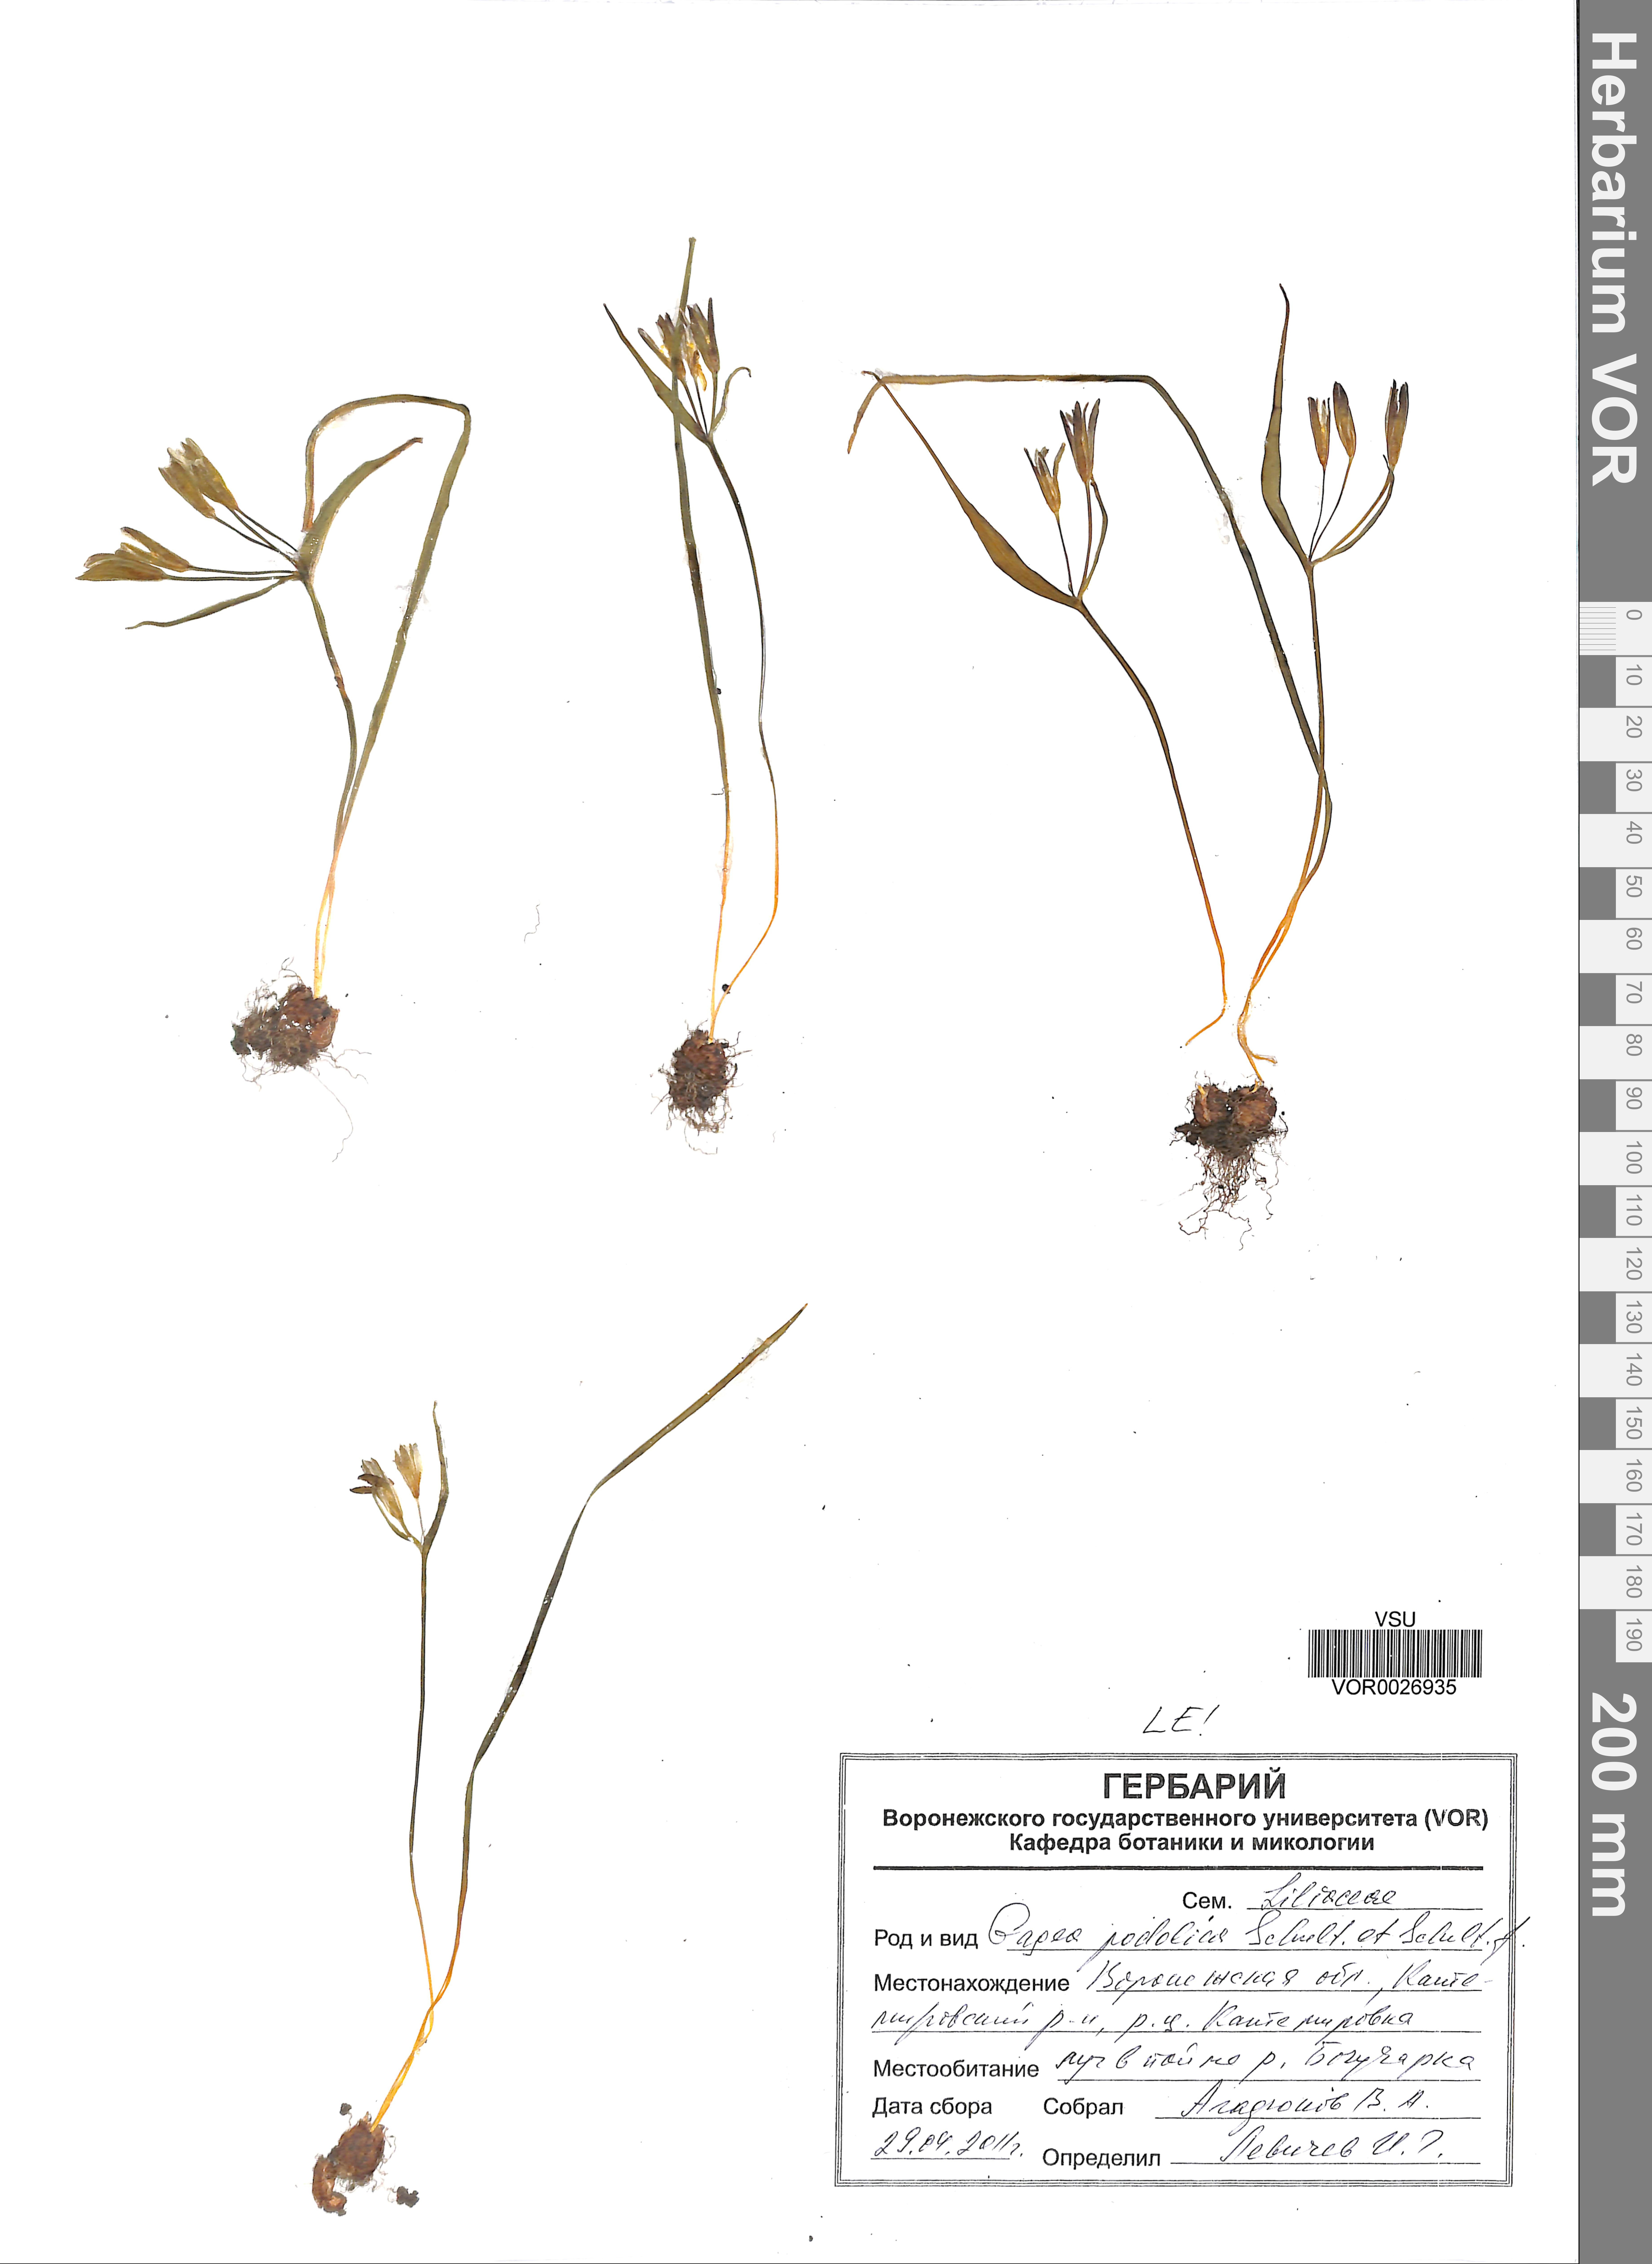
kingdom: Plantae
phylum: Tracheophyta
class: Liliopsida
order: Liliales
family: Liliaceae
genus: Gagea
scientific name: Gagea podolica
